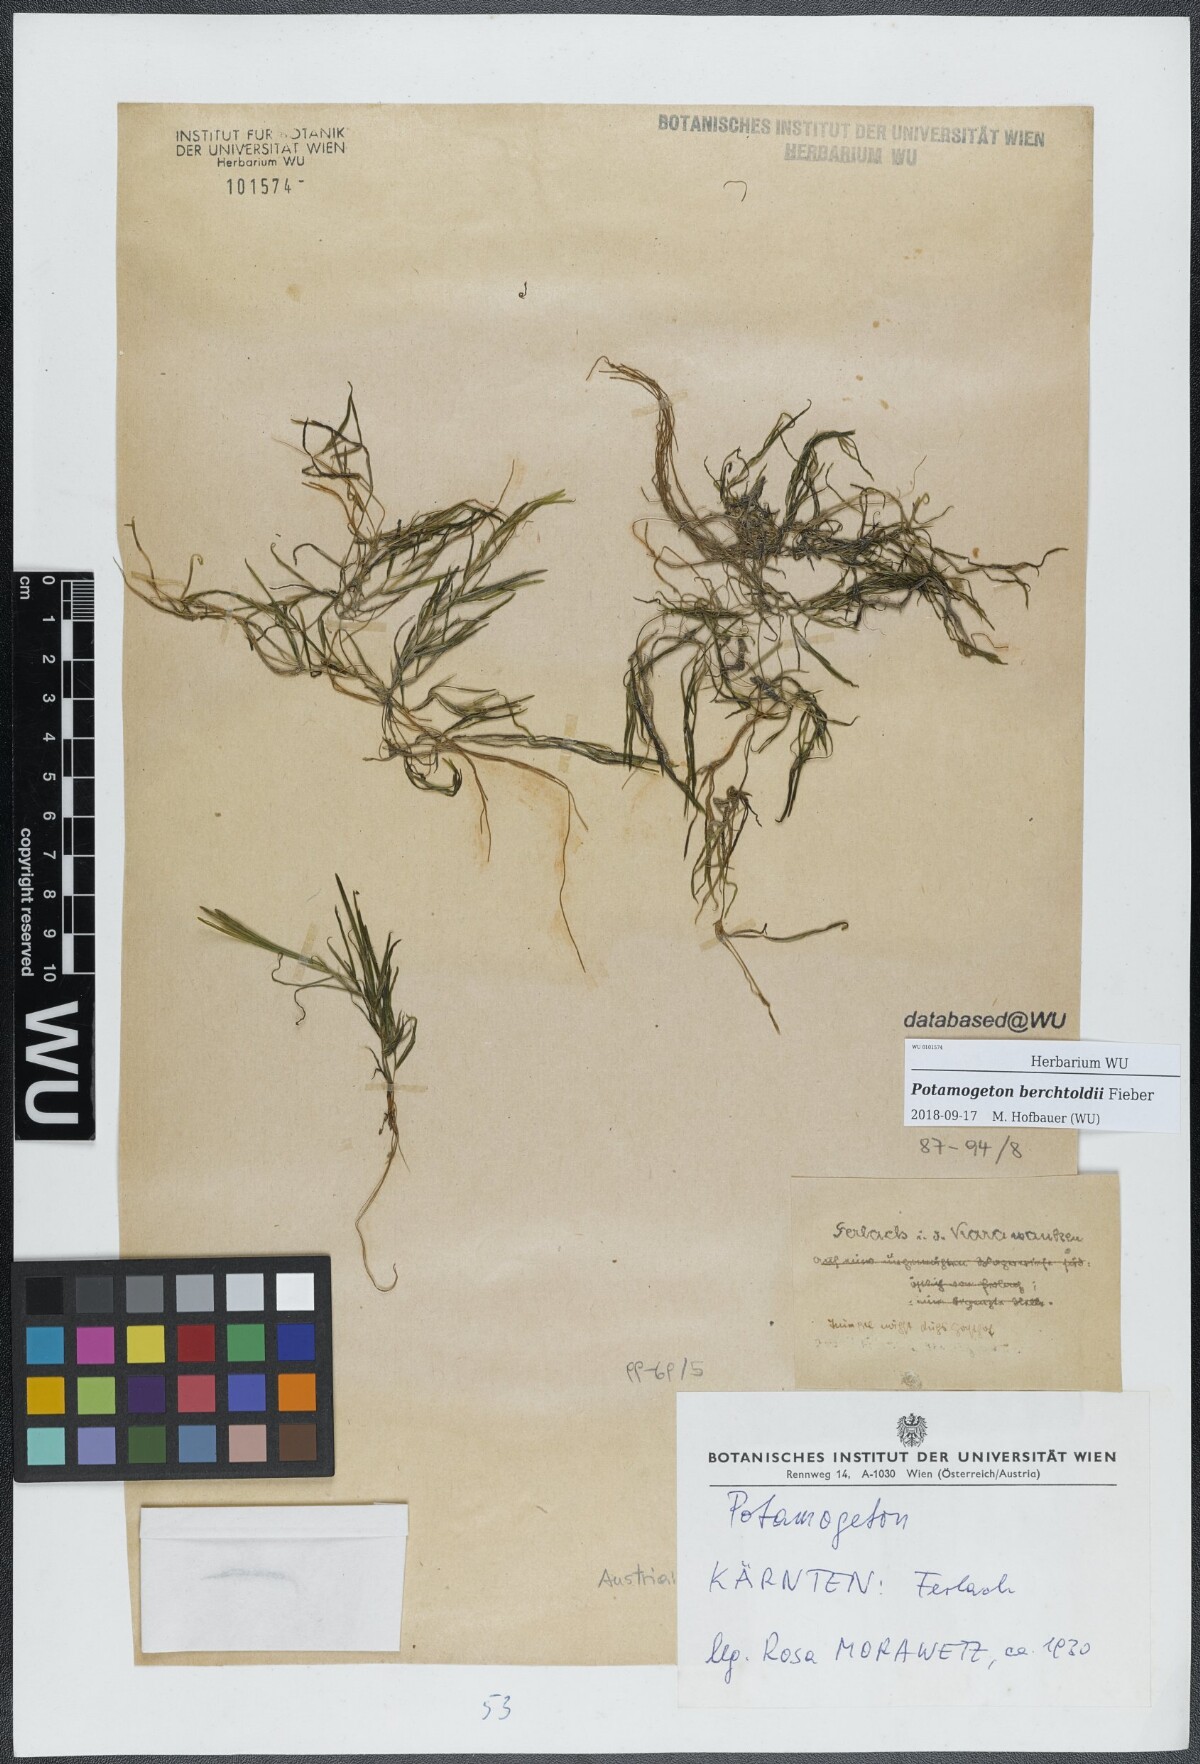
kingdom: Plantae
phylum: Tracheophyta
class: Liliopsida
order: Alismatales
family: Potamogetonaceae
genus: Potamogeton
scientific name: Potamogeton berchtoldii
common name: Small pondweed
